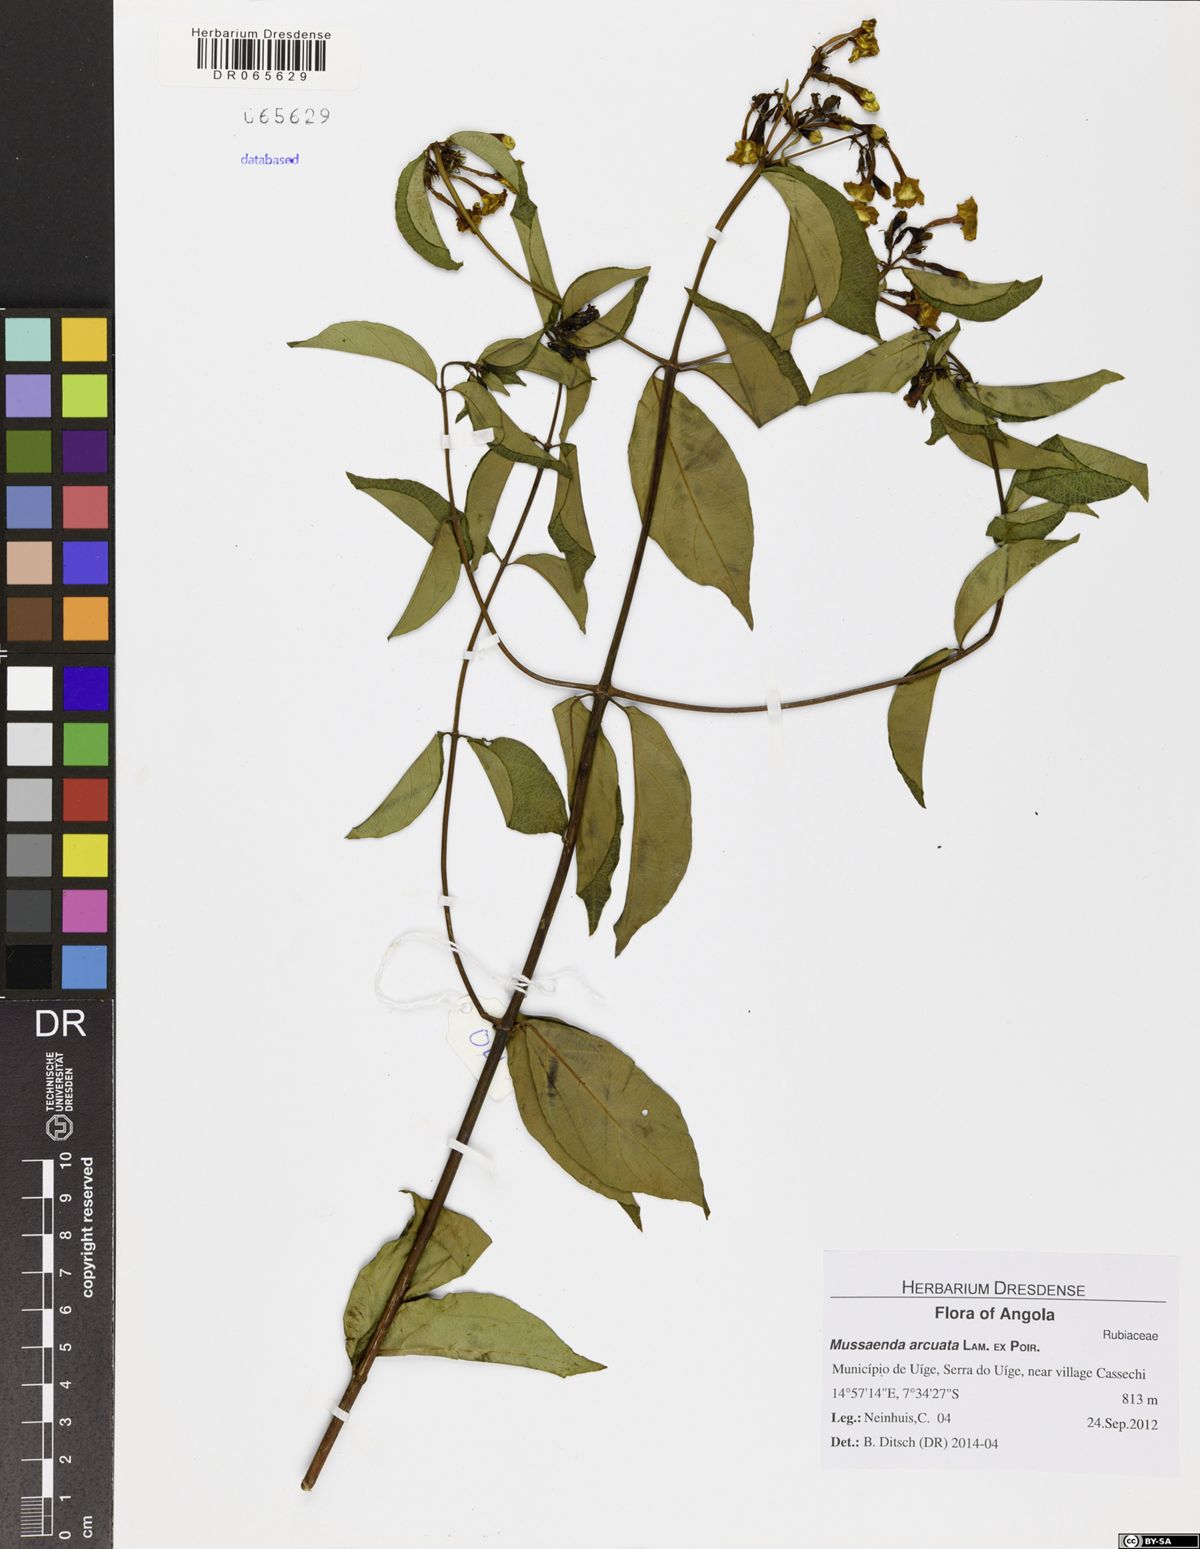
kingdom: Plantae
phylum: Tracheophyta
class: Magnoliopsida
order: Gentianales
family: Rubiaceae
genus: Mussaenda
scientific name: Mussaenda arcuata
